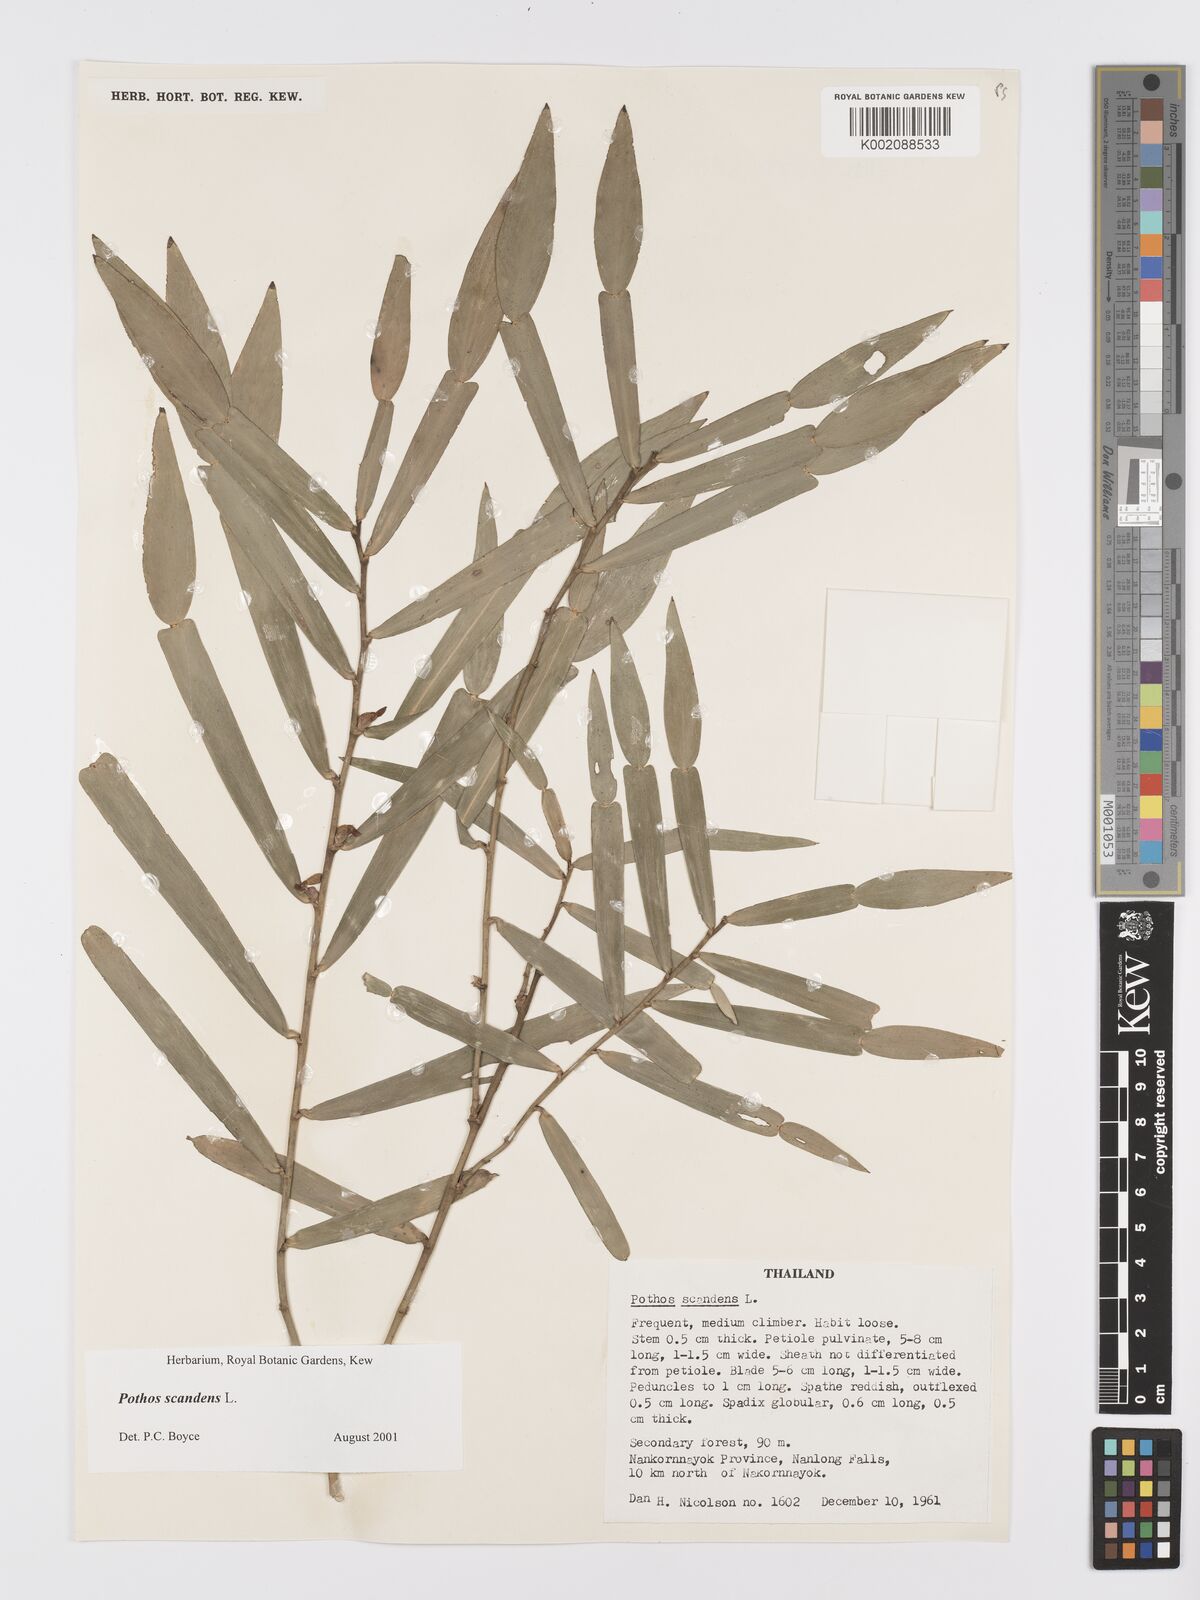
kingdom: Plantae
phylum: Tracheophyta
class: Liliopsida
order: Alismatales
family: Araceae
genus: Pothos
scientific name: Pothos scandens
